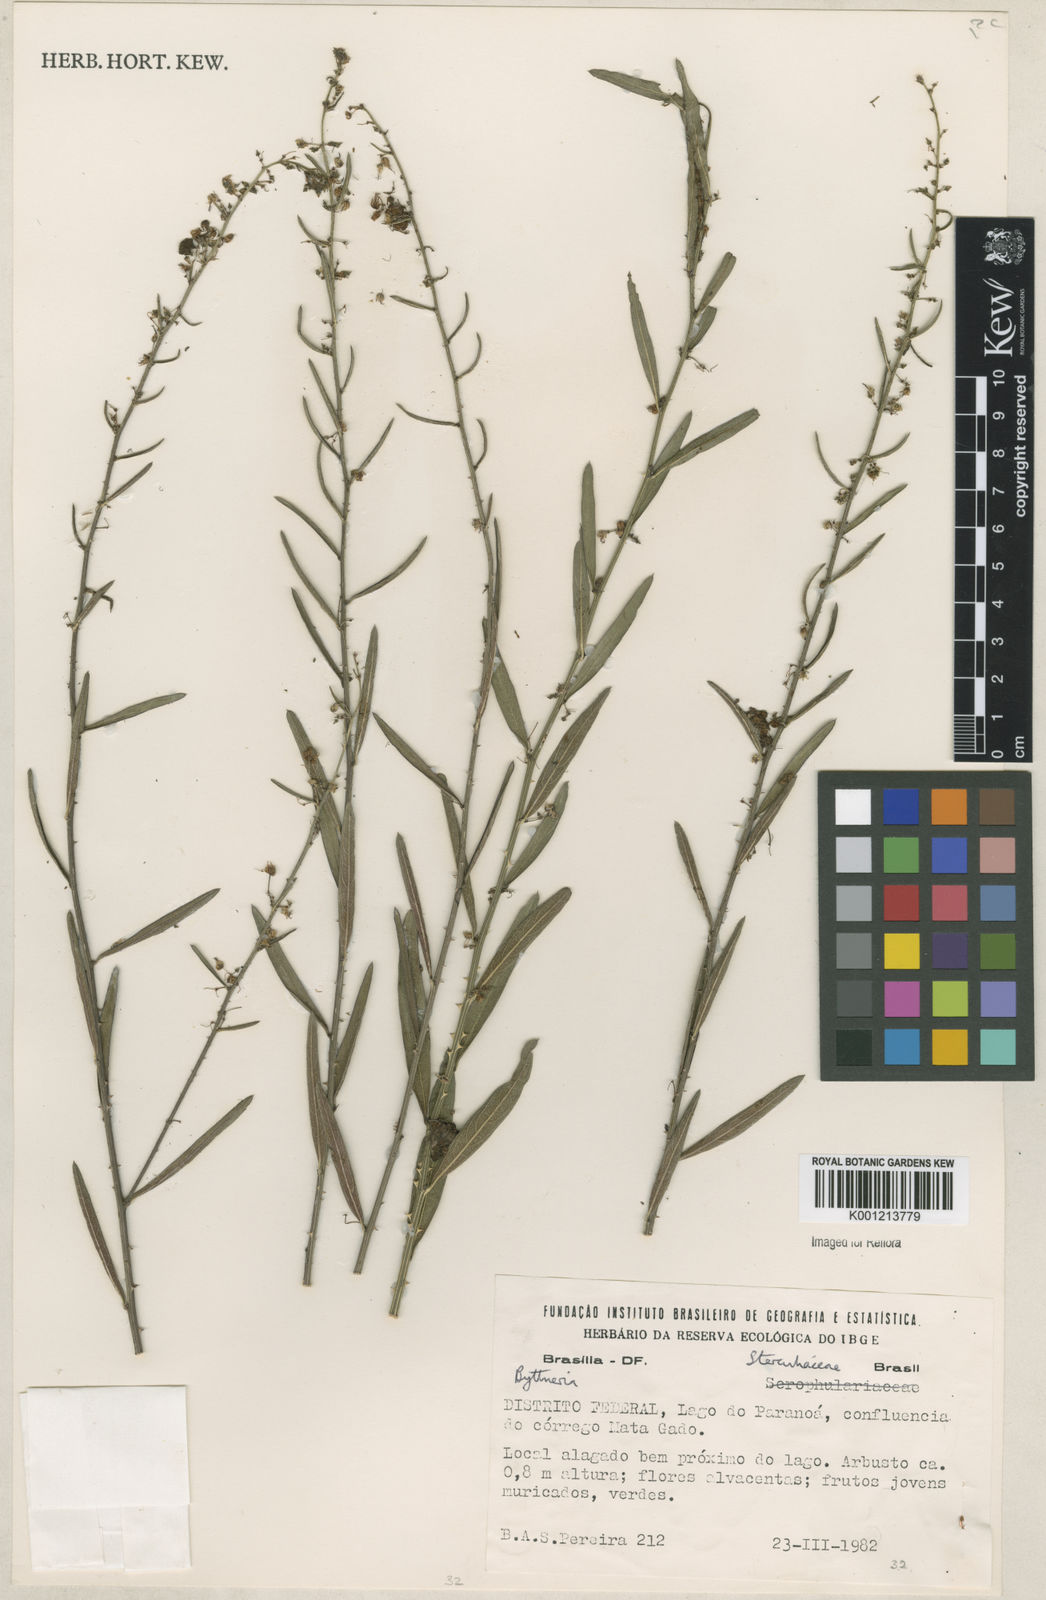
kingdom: Plantae
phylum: Tracheophyta
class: Magnoliopsida
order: Malvales
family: Malvaceae
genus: Byttneria
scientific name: Byttneria
